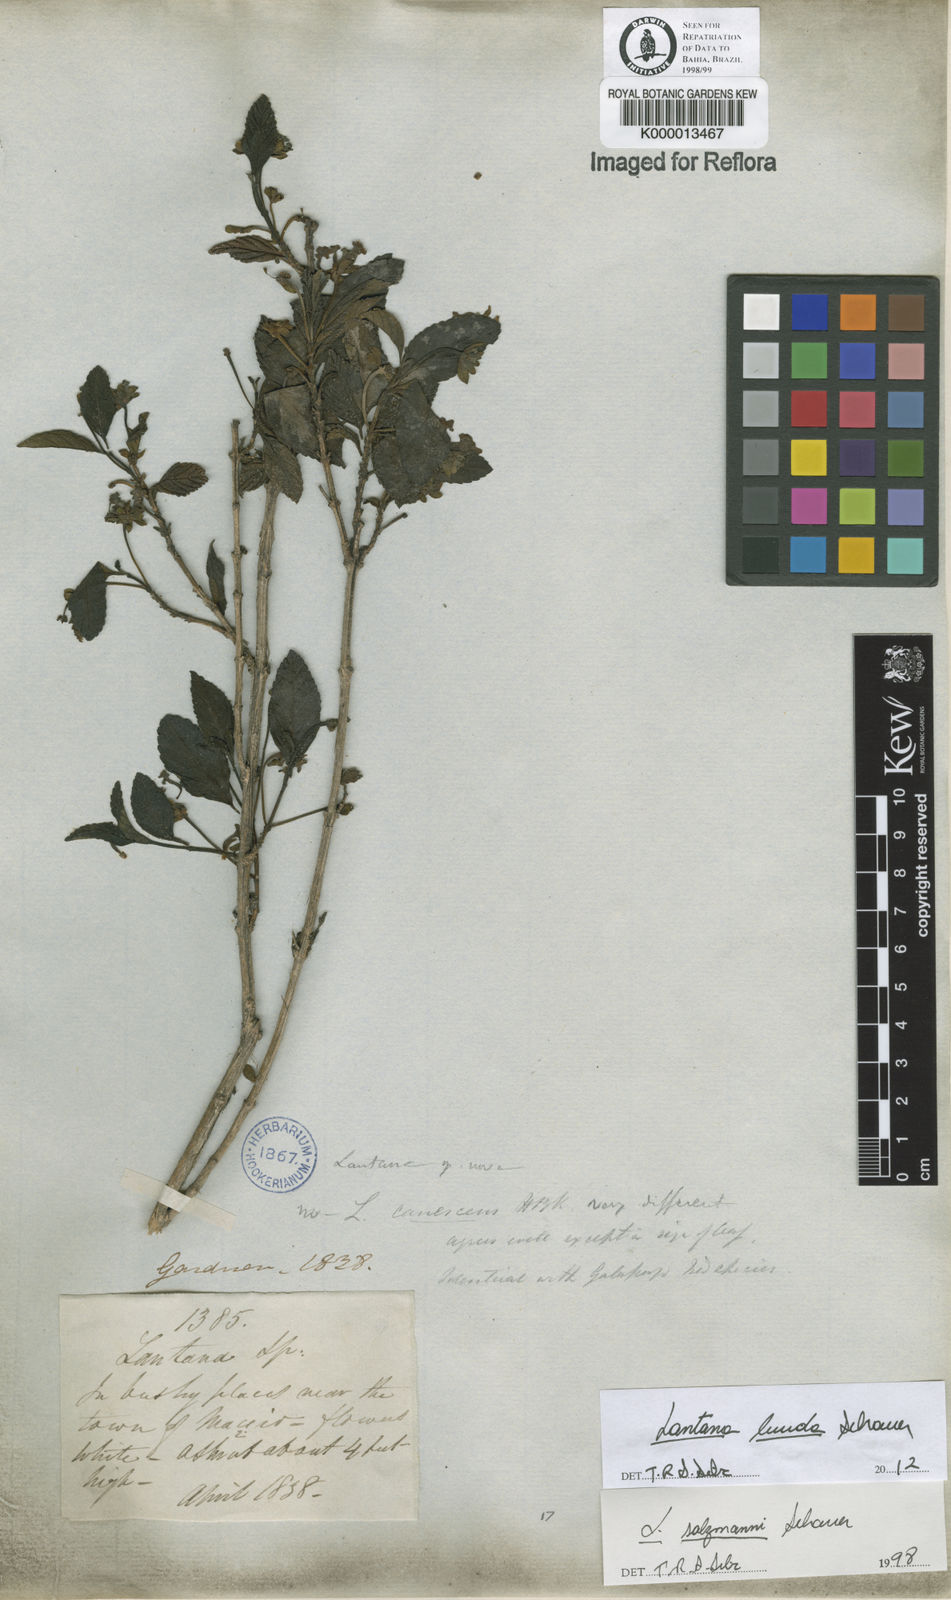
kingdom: Plantae
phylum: Tracheophyta
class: Magnoliopsida
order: Lamiales
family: Verbenaceae
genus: Lantana
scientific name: Lantana lucida
